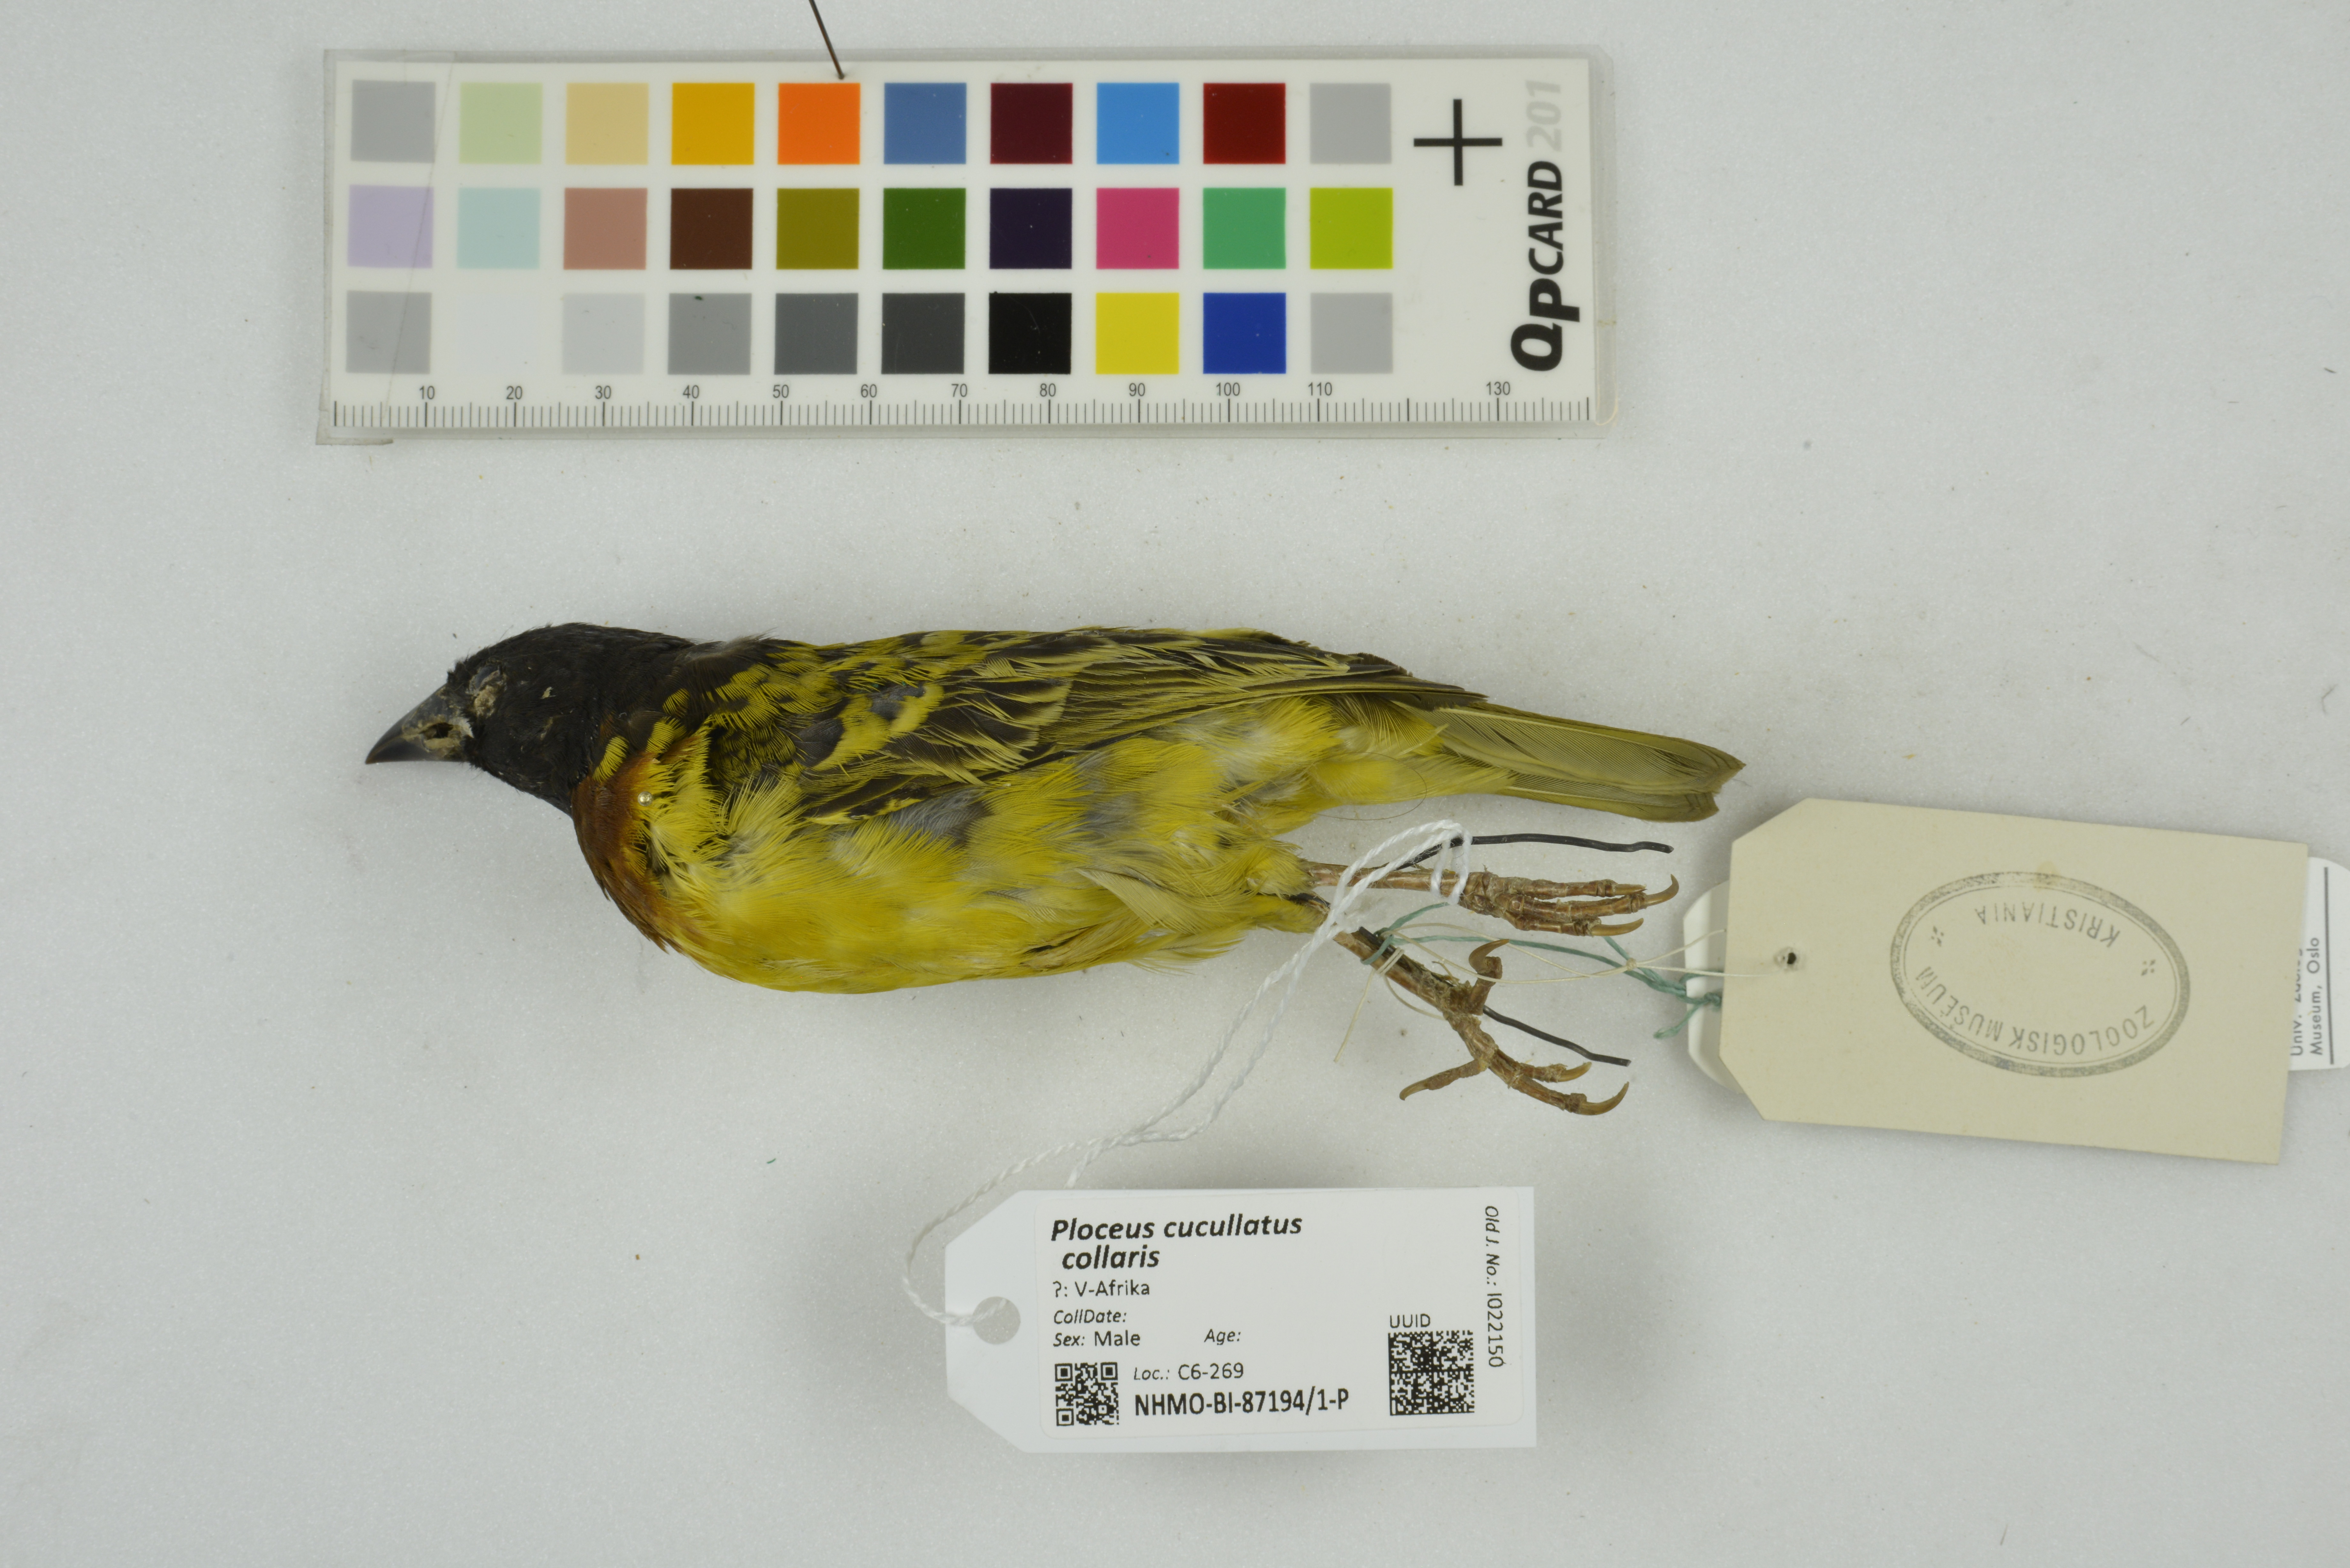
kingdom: Animalia
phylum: Chordata
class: Aves
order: Passeriformes
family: Ploceidae
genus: Ploceus
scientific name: Ploceus cucullatus
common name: Village weaver
